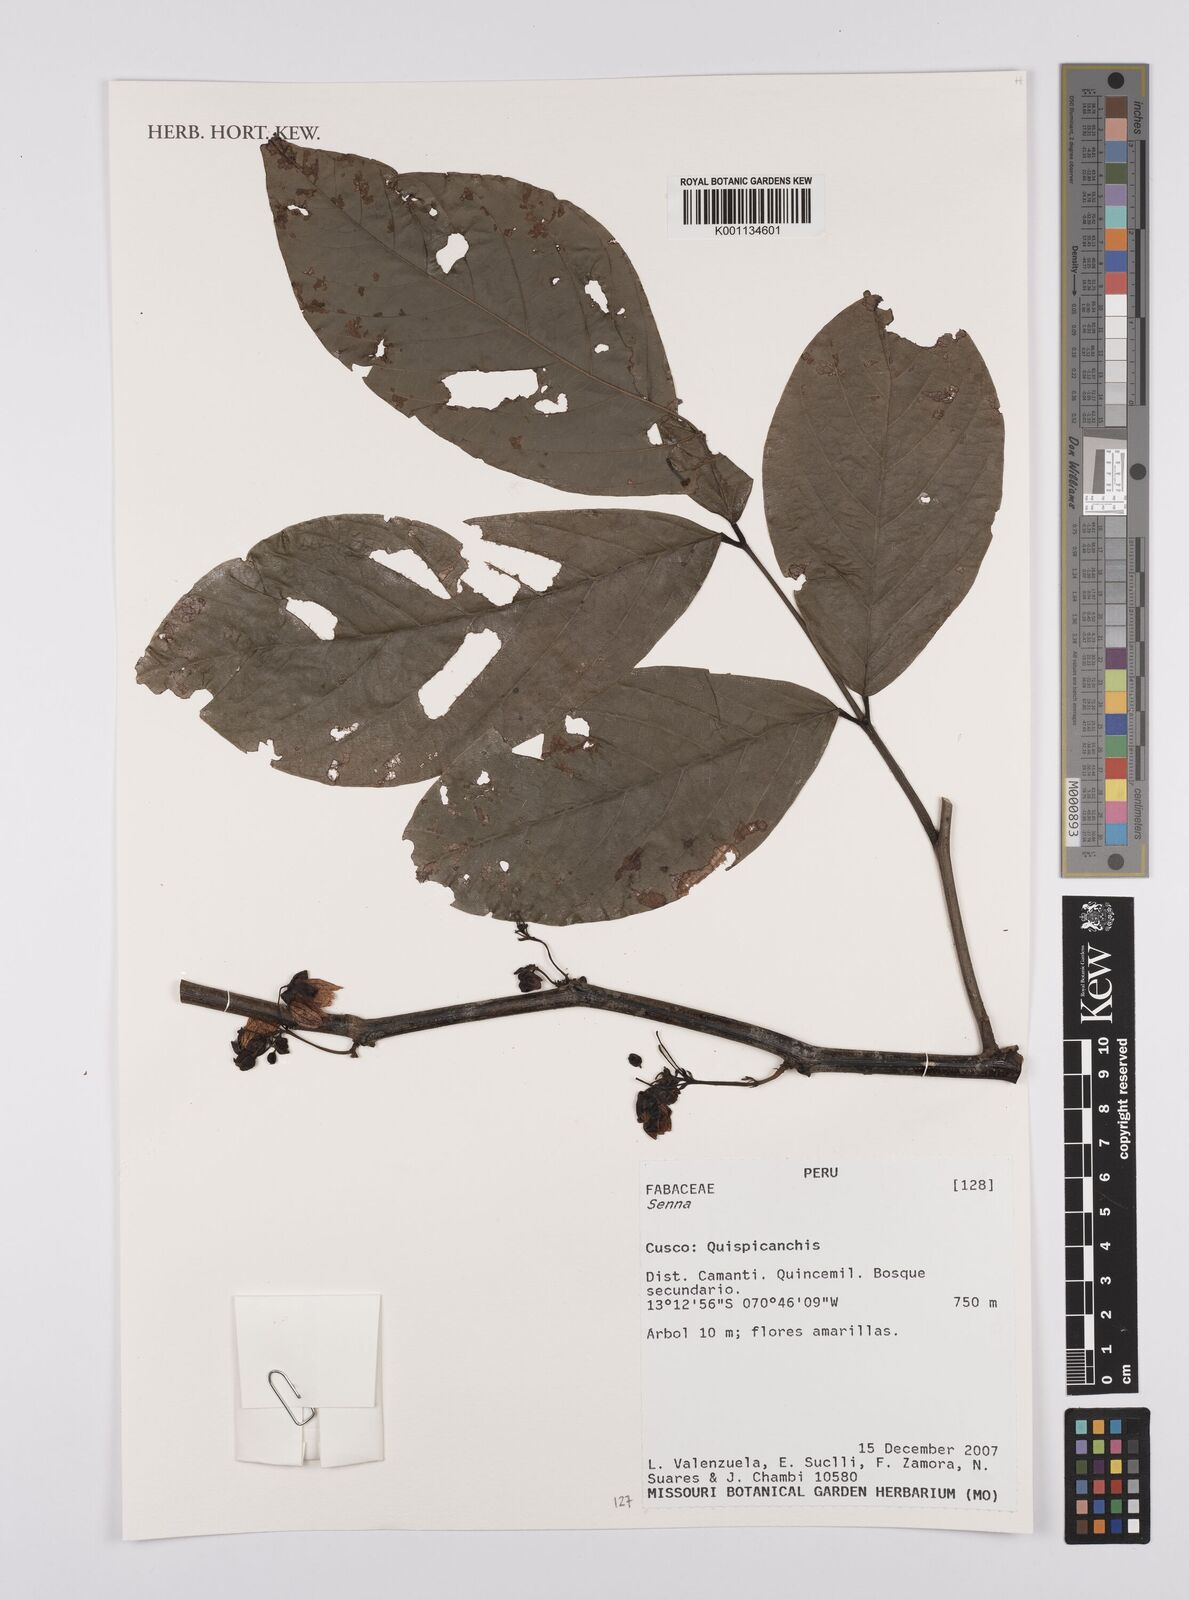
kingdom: Plantae
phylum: Tracheophyta
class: Magnoliopsida
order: Fabales
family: Fabaceae
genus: Senna
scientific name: Senna
